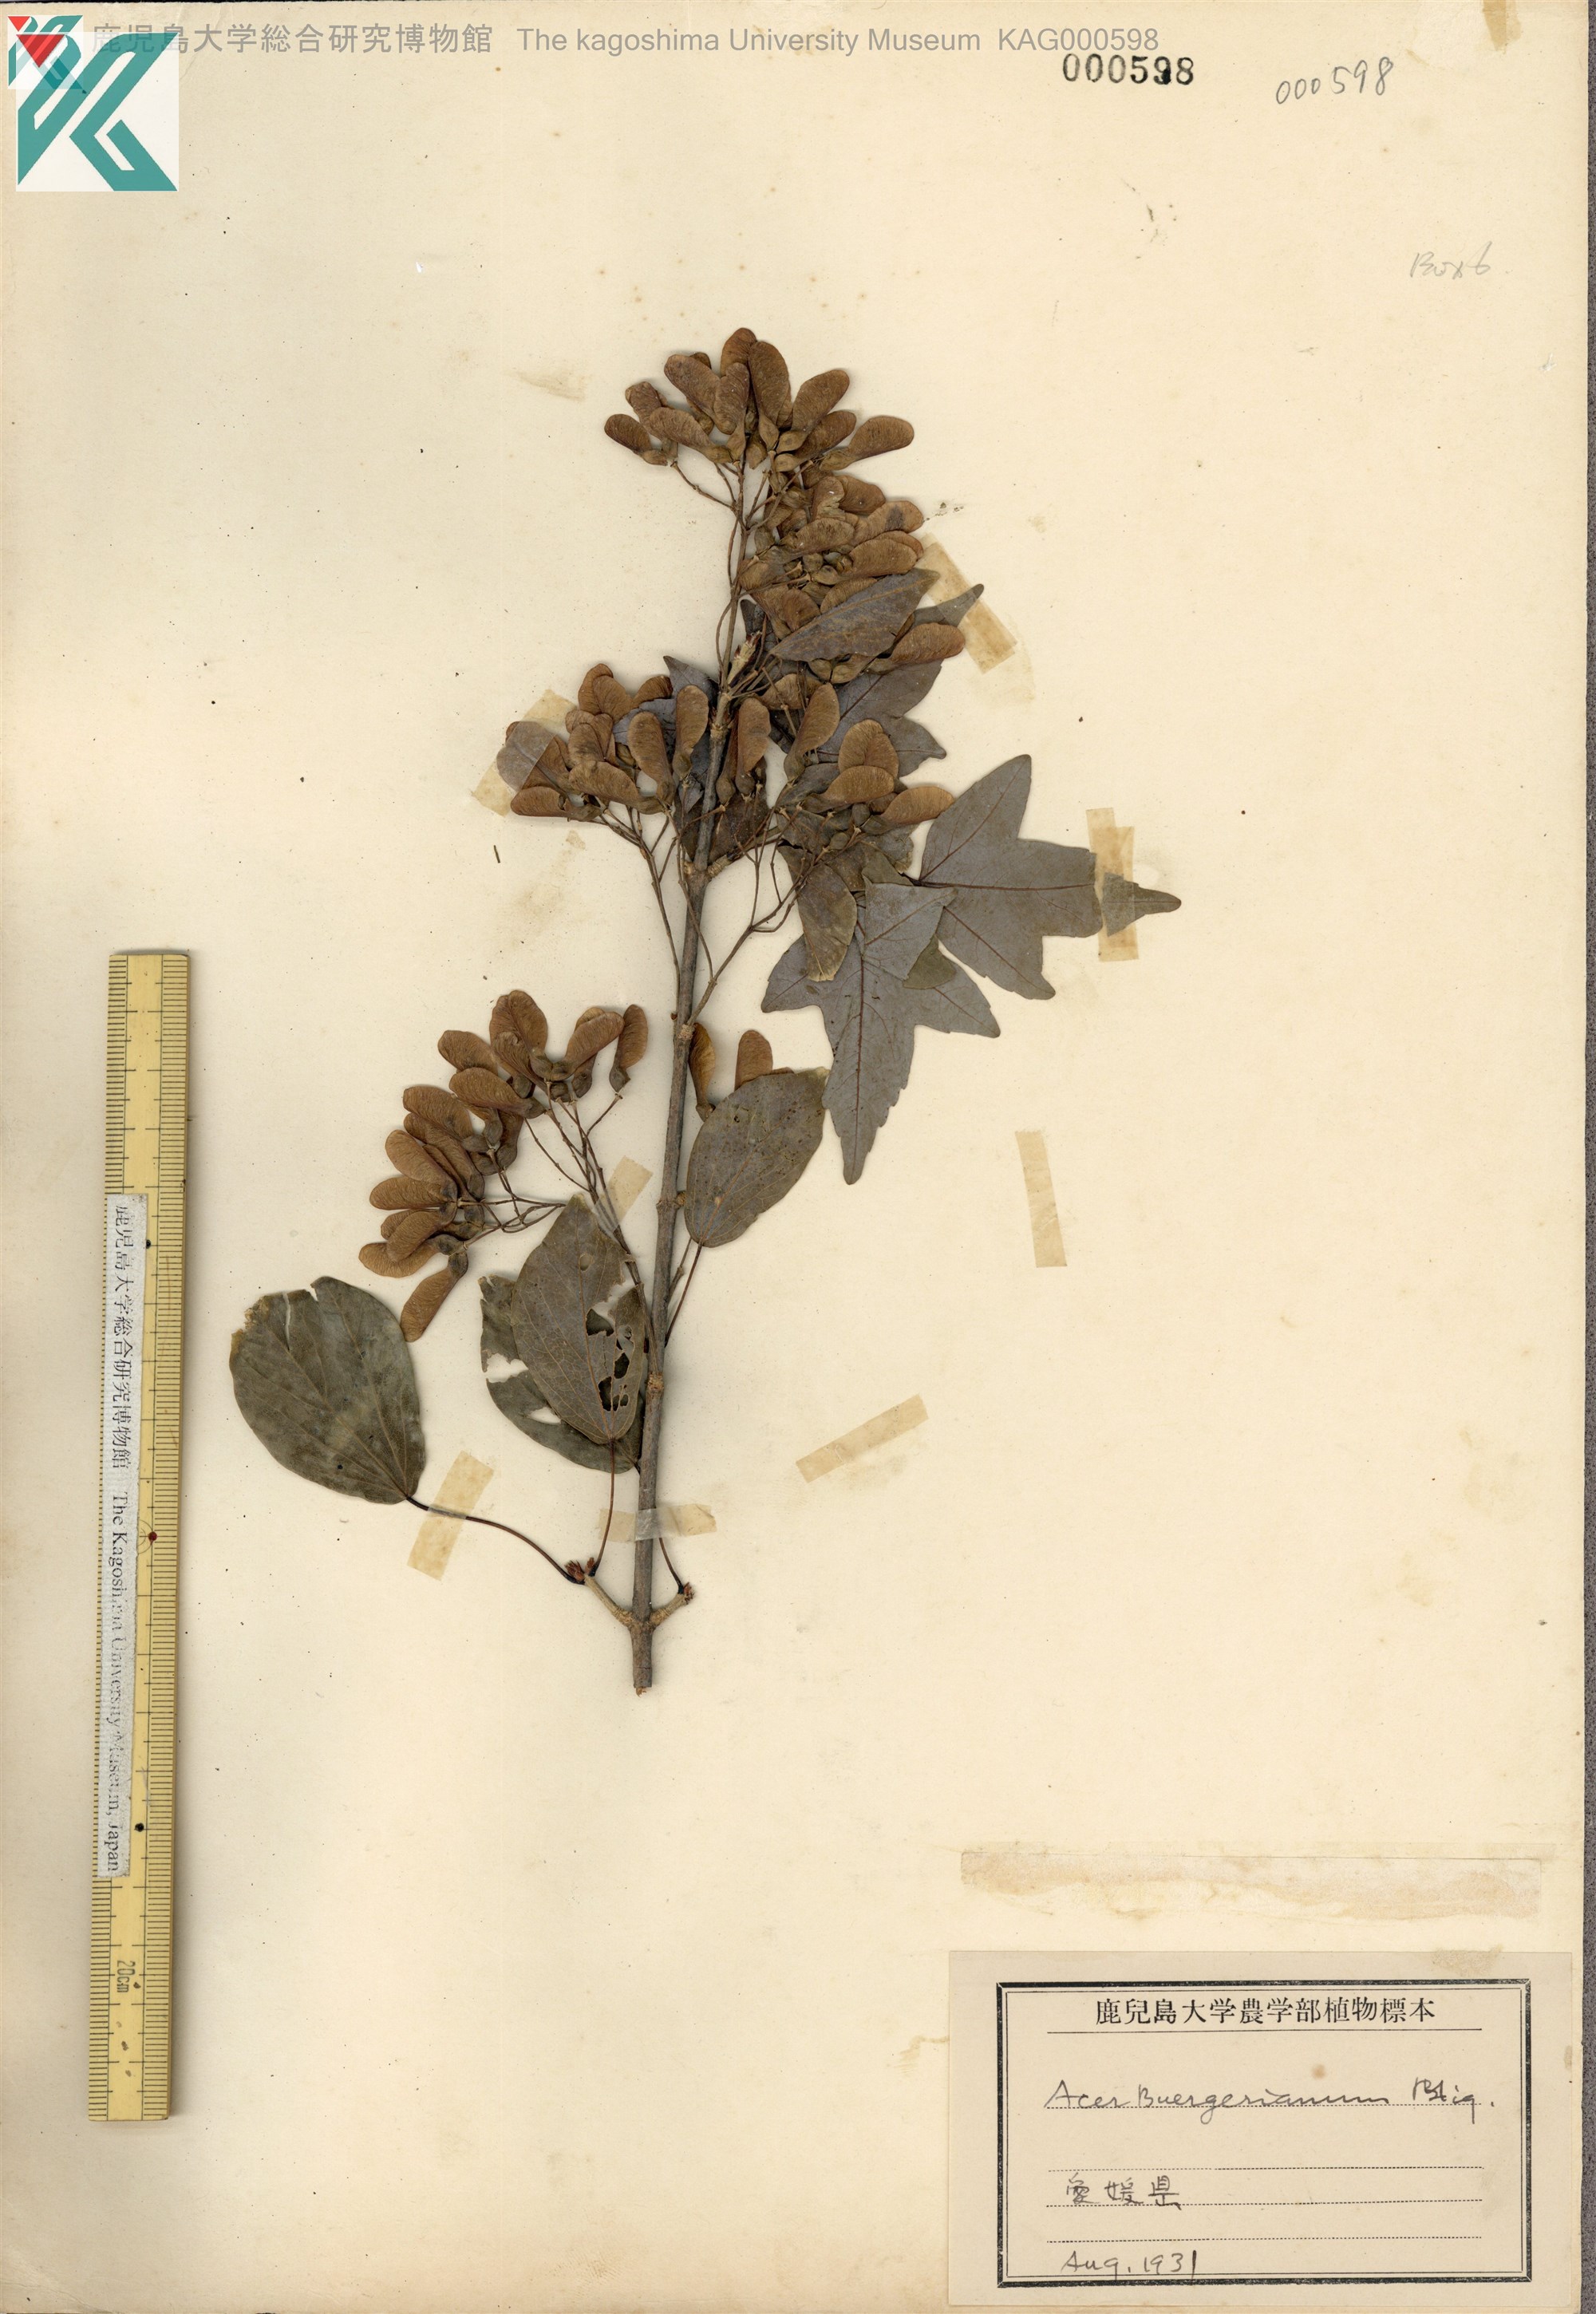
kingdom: Plantae
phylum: Tracheophyta
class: Magnoliopsida
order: Sapindales
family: Sapindaceae
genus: Acer
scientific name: Acer buergerianum
